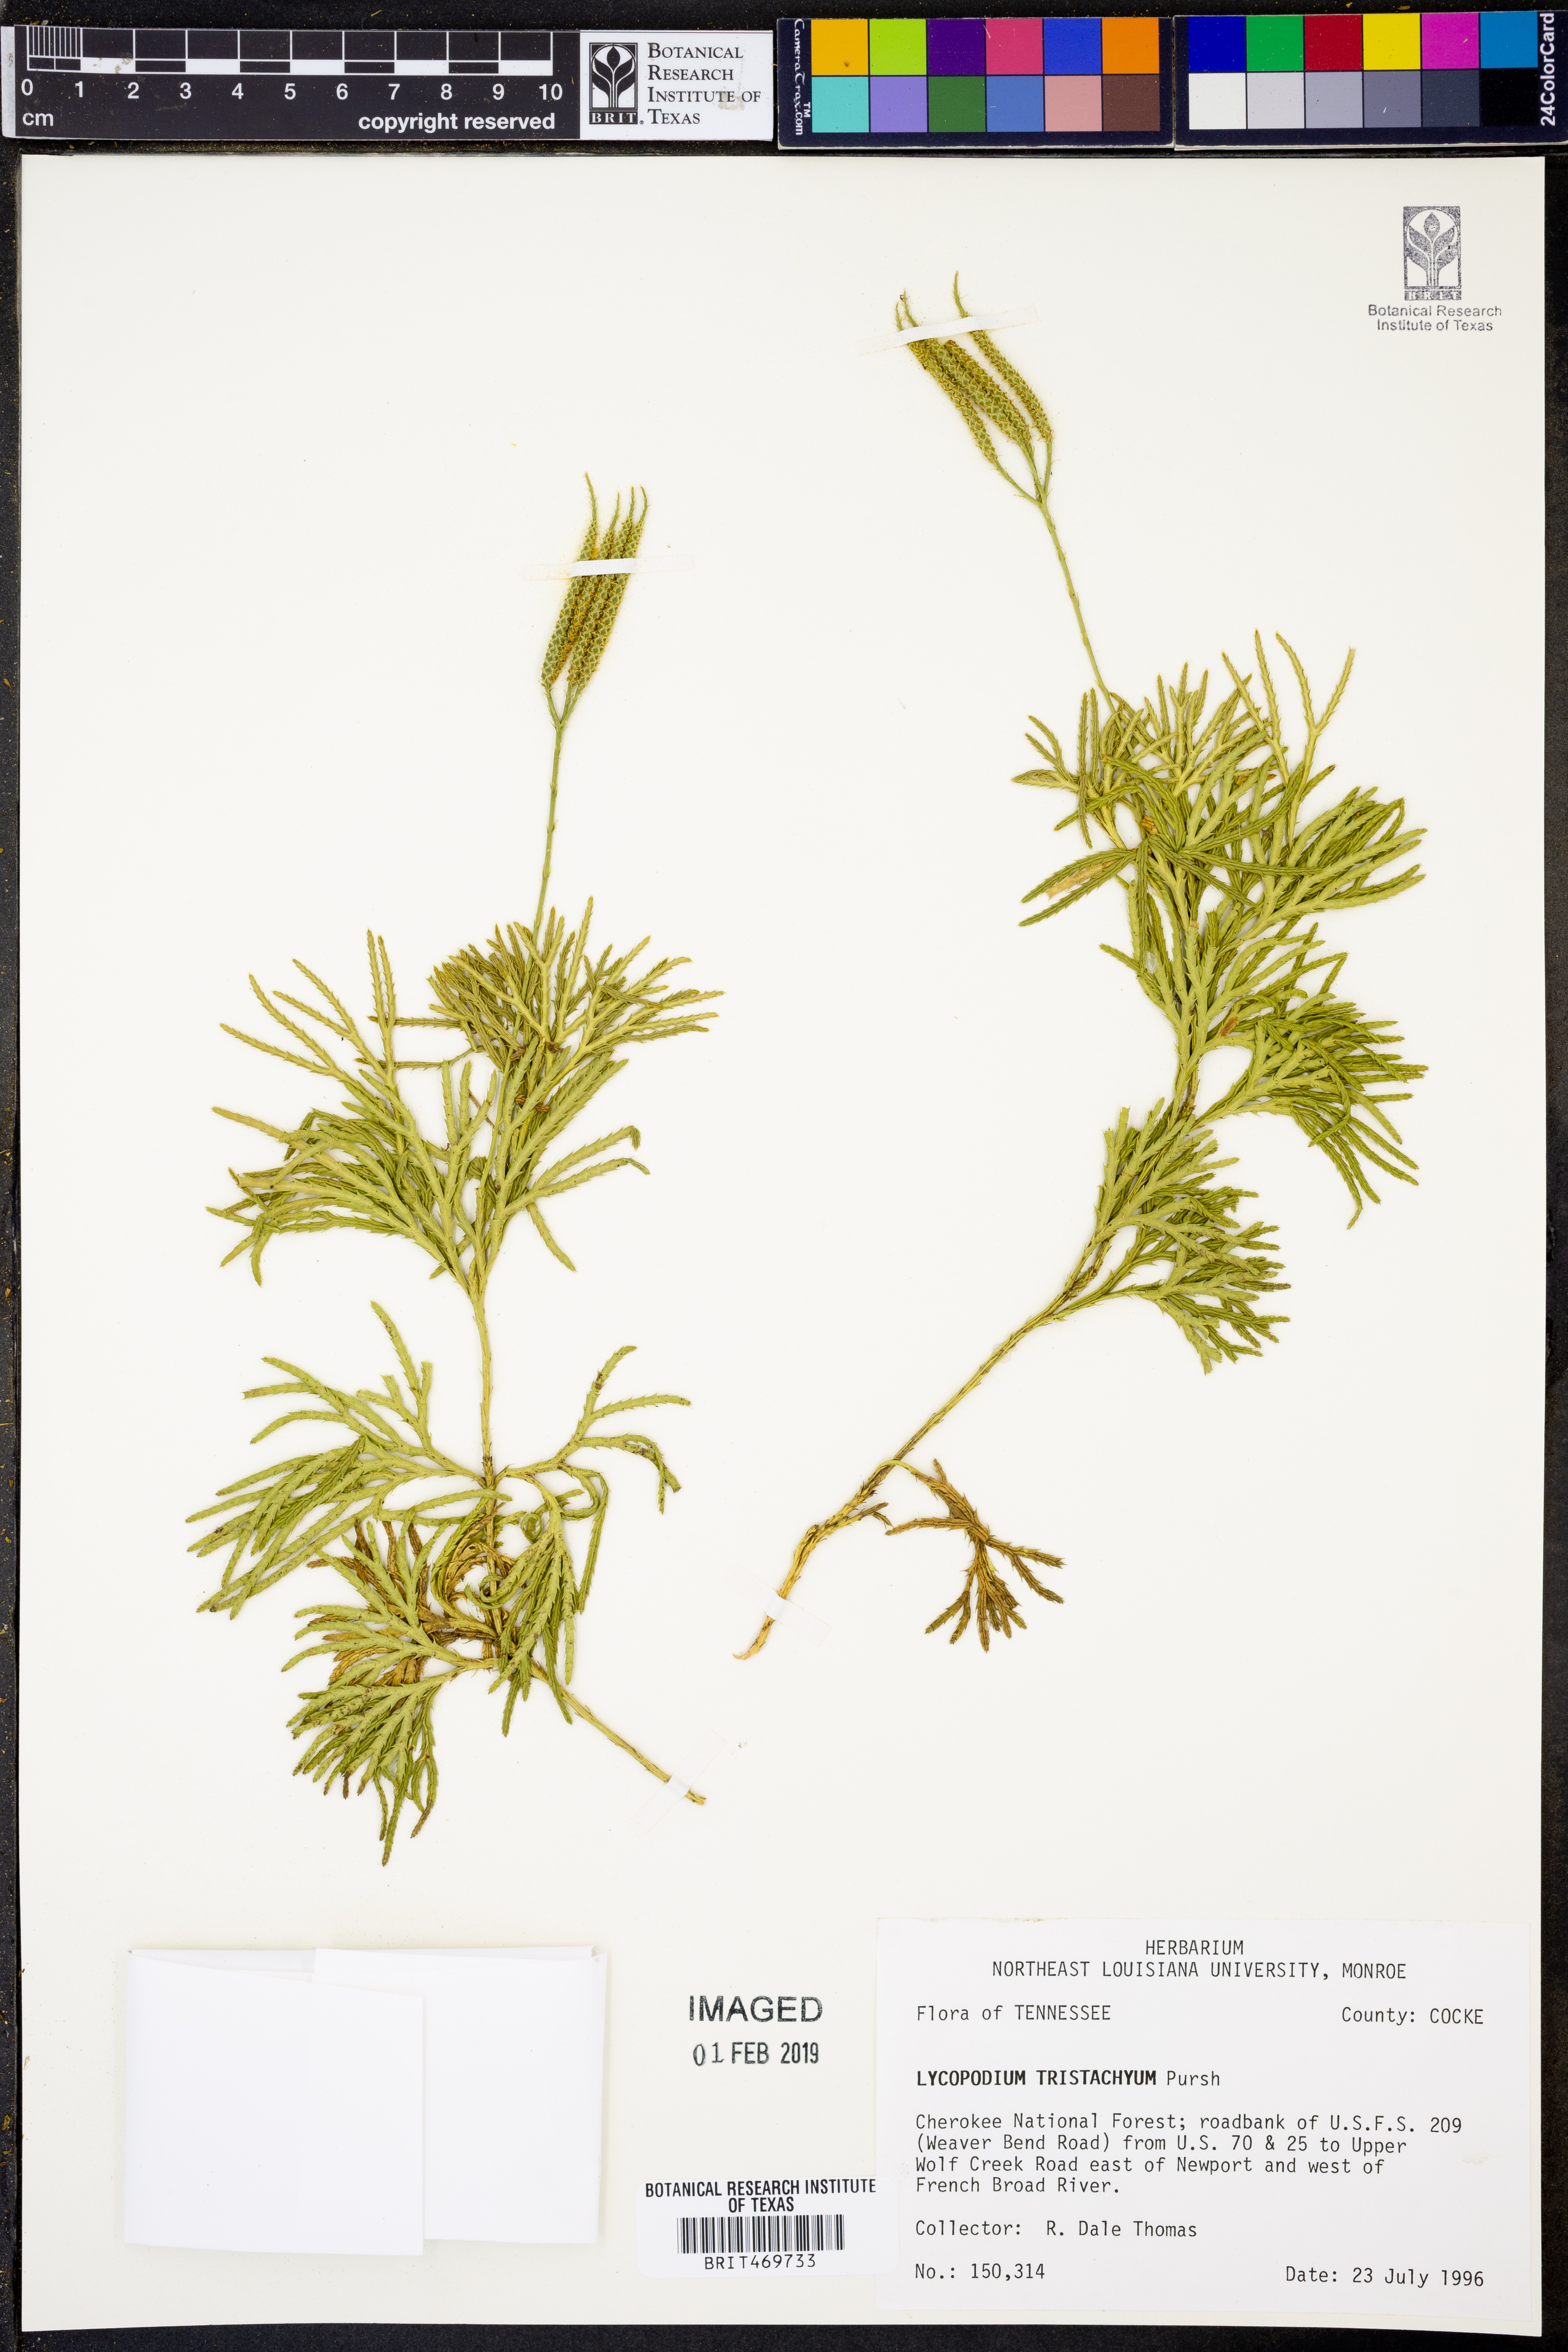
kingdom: Plantae
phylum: Tracheophyta
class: Lycopodiopsida
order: Lycopodiales
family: Lycopodiaceae
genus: Diphasiastrum
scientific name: Diphasiastrum tristachyum
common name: Blue ground-cedar
